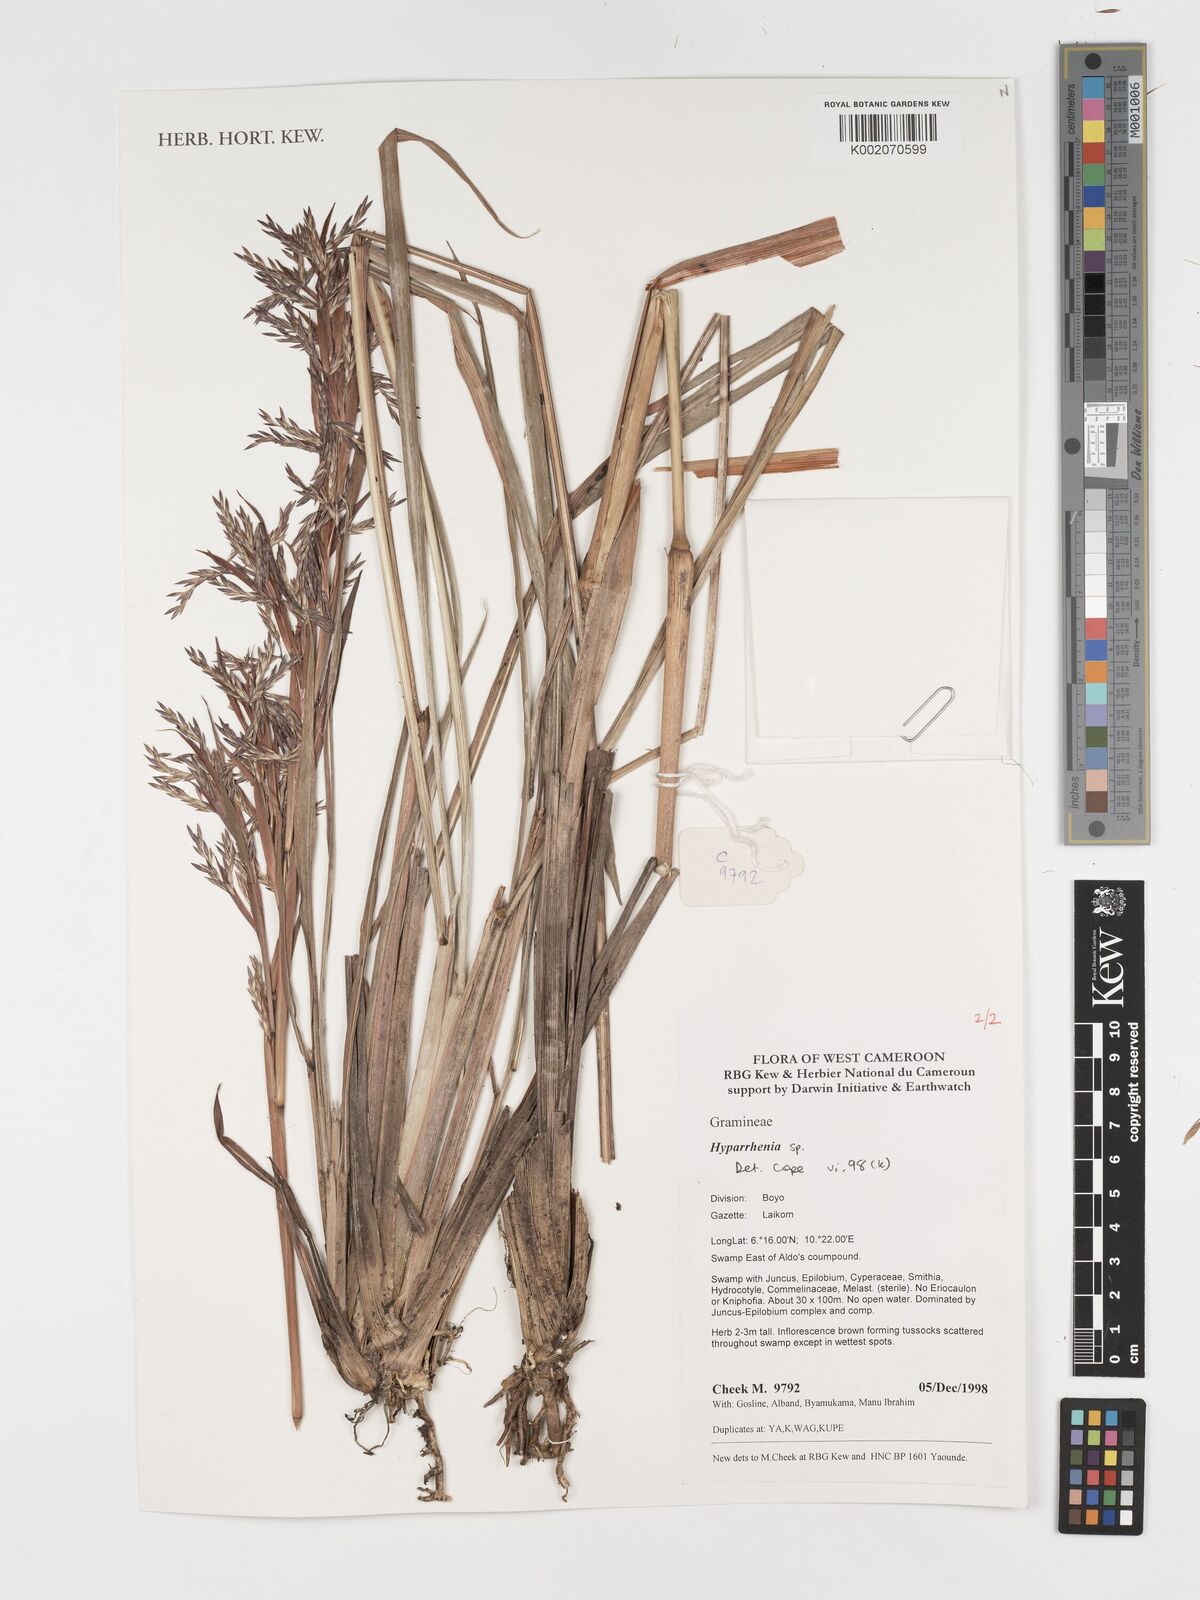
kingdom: Plantae
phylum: Tracheophyta
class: Liliopsida
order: Poales
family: Poaceae
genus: Hyparrhenia
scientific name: Hyparrhenia
